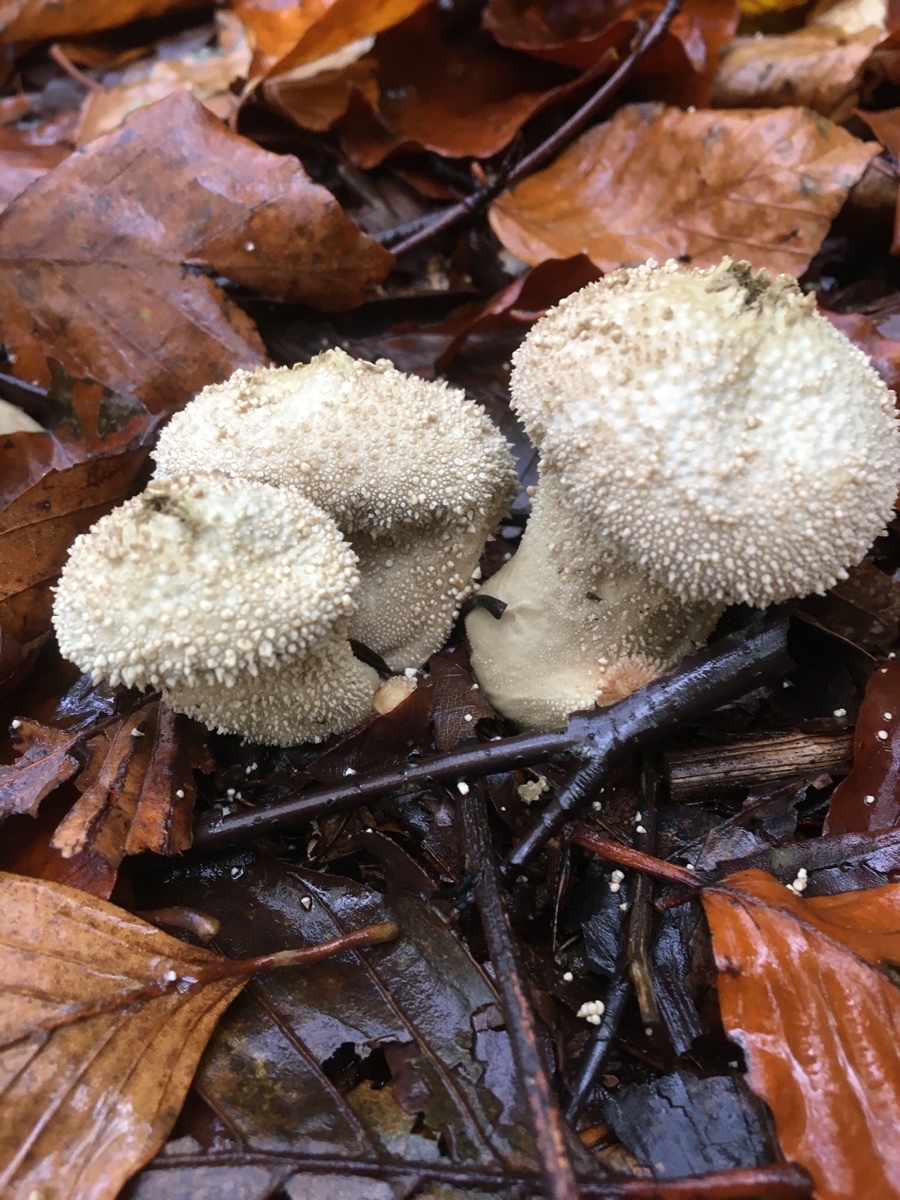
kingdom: Fungi
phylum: Basidiomycota
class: Agaricomycetes
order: Agaricales
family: Lycoperdaceae
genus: Lycoperdon
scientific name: Lycoperdon perlatum
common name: krystal-støvbold
